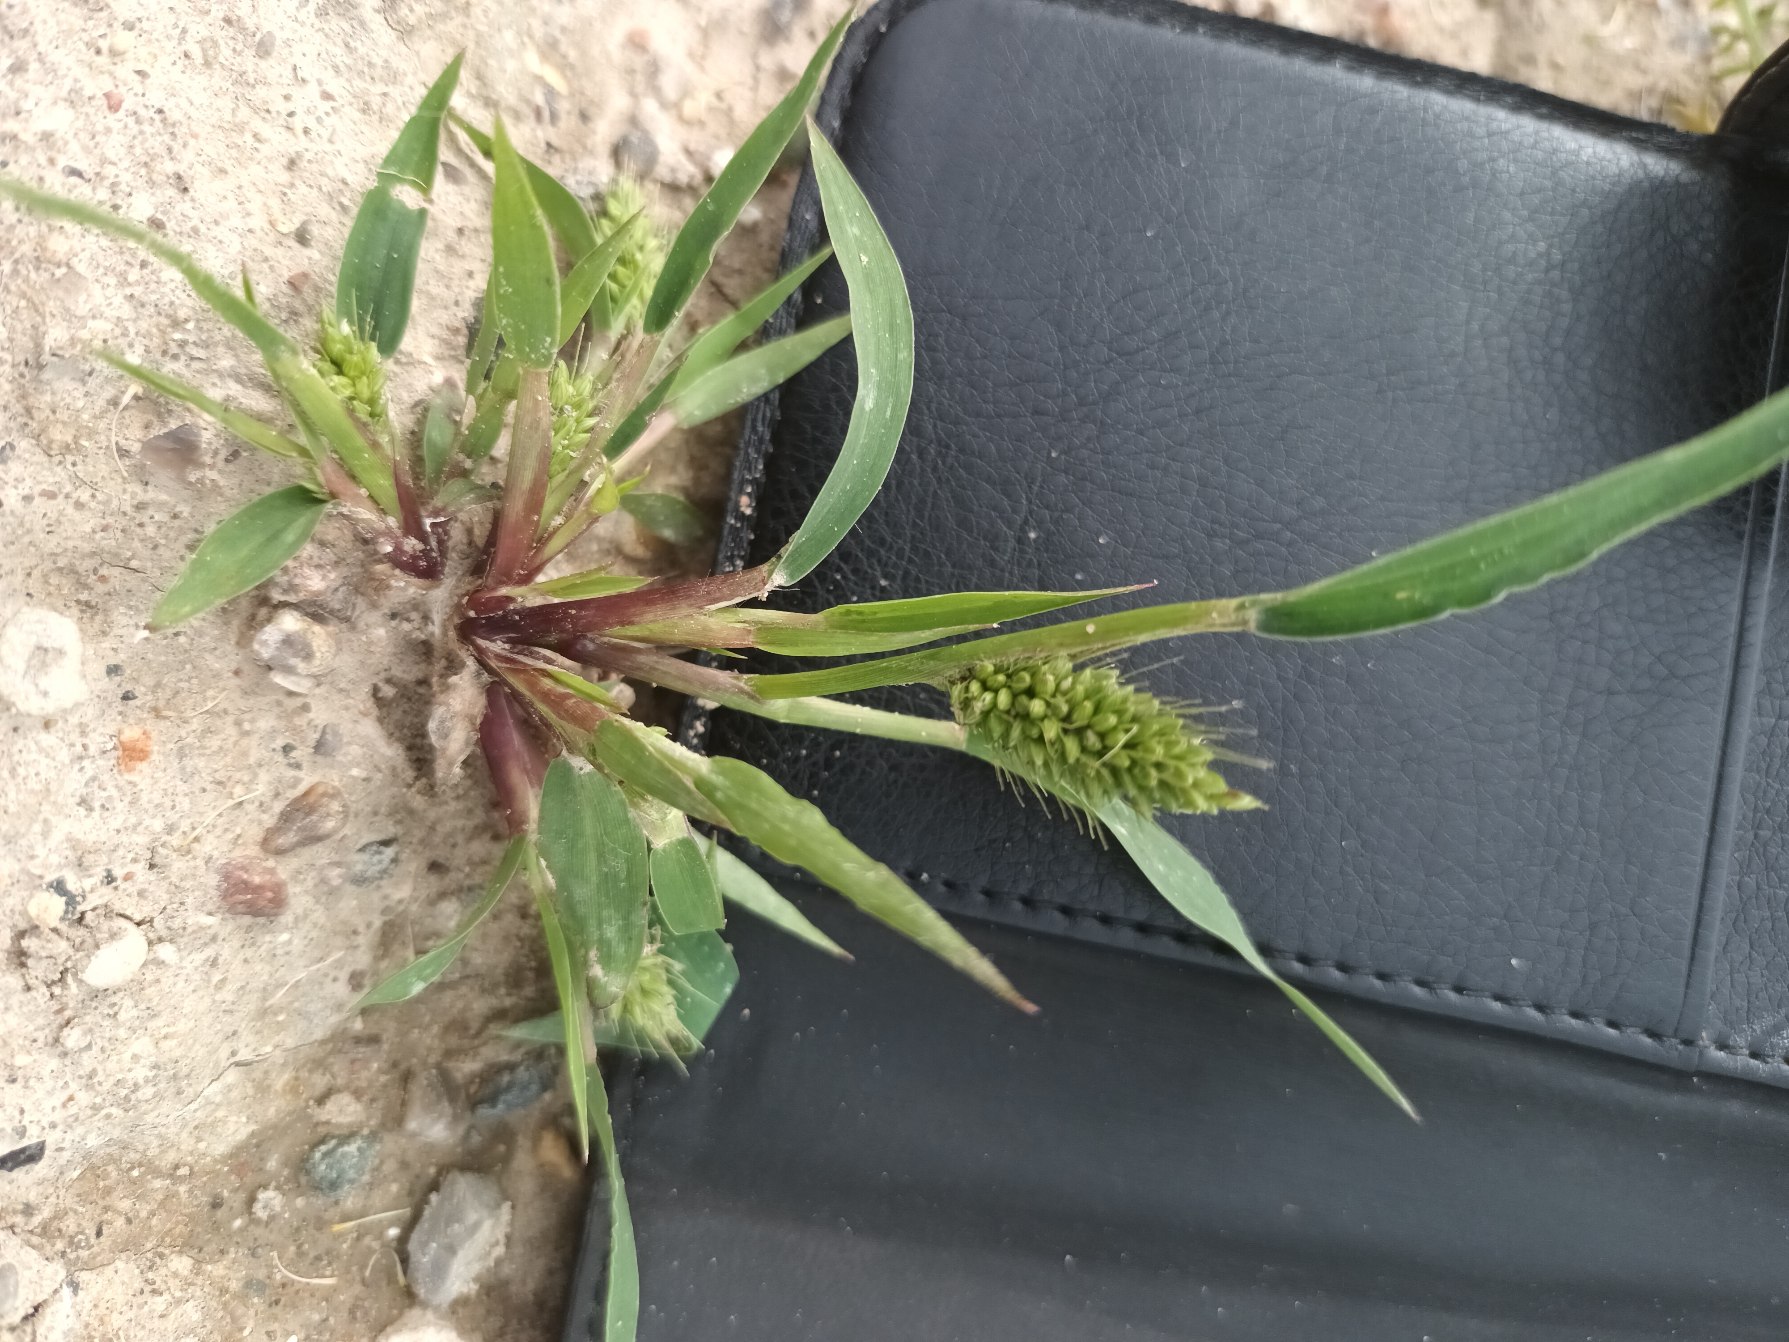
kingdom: Plantae
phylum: Tracheophyta
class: Liliopsida
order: Poales
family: Poaceae
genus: Setaria
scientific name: Setaria viridis
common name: Grøn skærmaks
